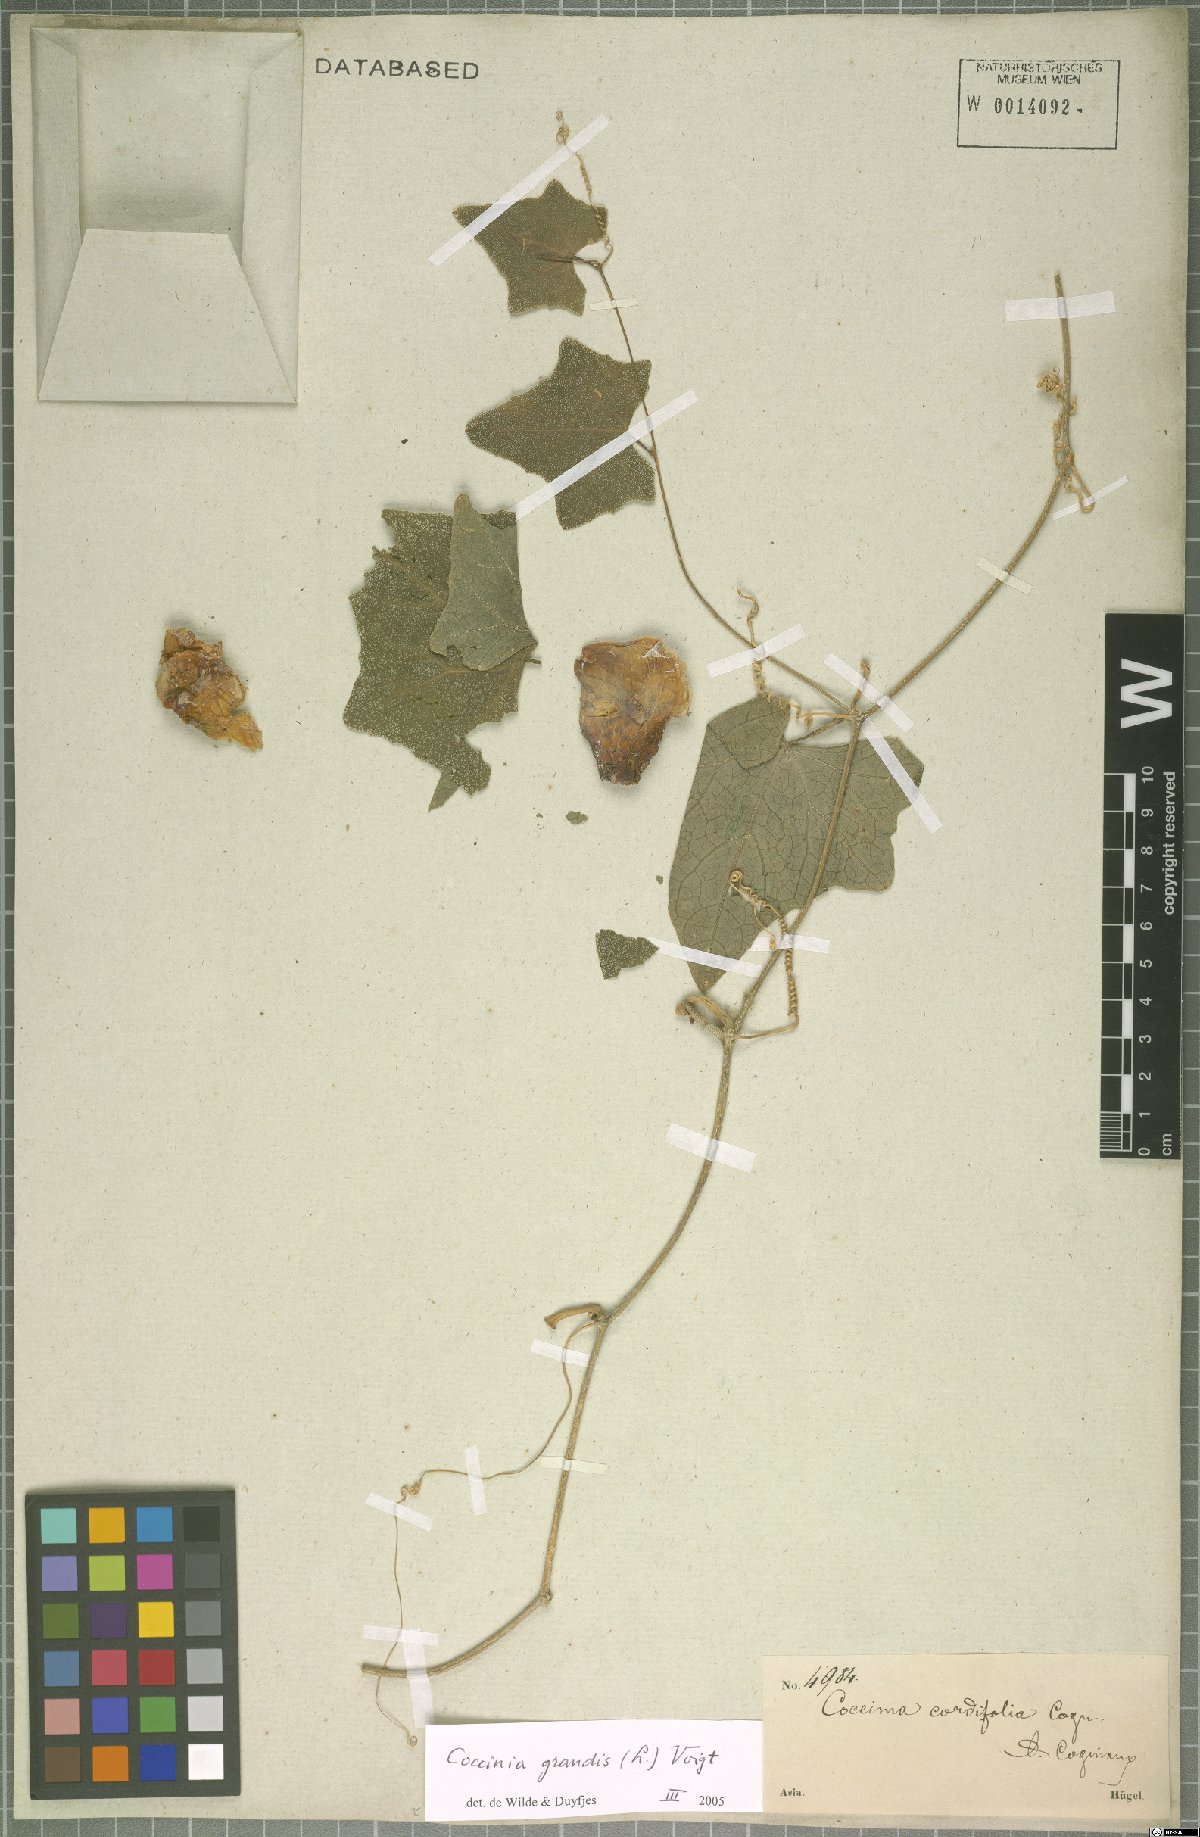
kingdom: Plantae
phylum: Tracheophyta
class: Magnoliopsida
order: Cucurbitales
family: Cucurbitaceae
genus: Coccinia
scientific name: Coccinia grandis
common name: Ivy gourd
